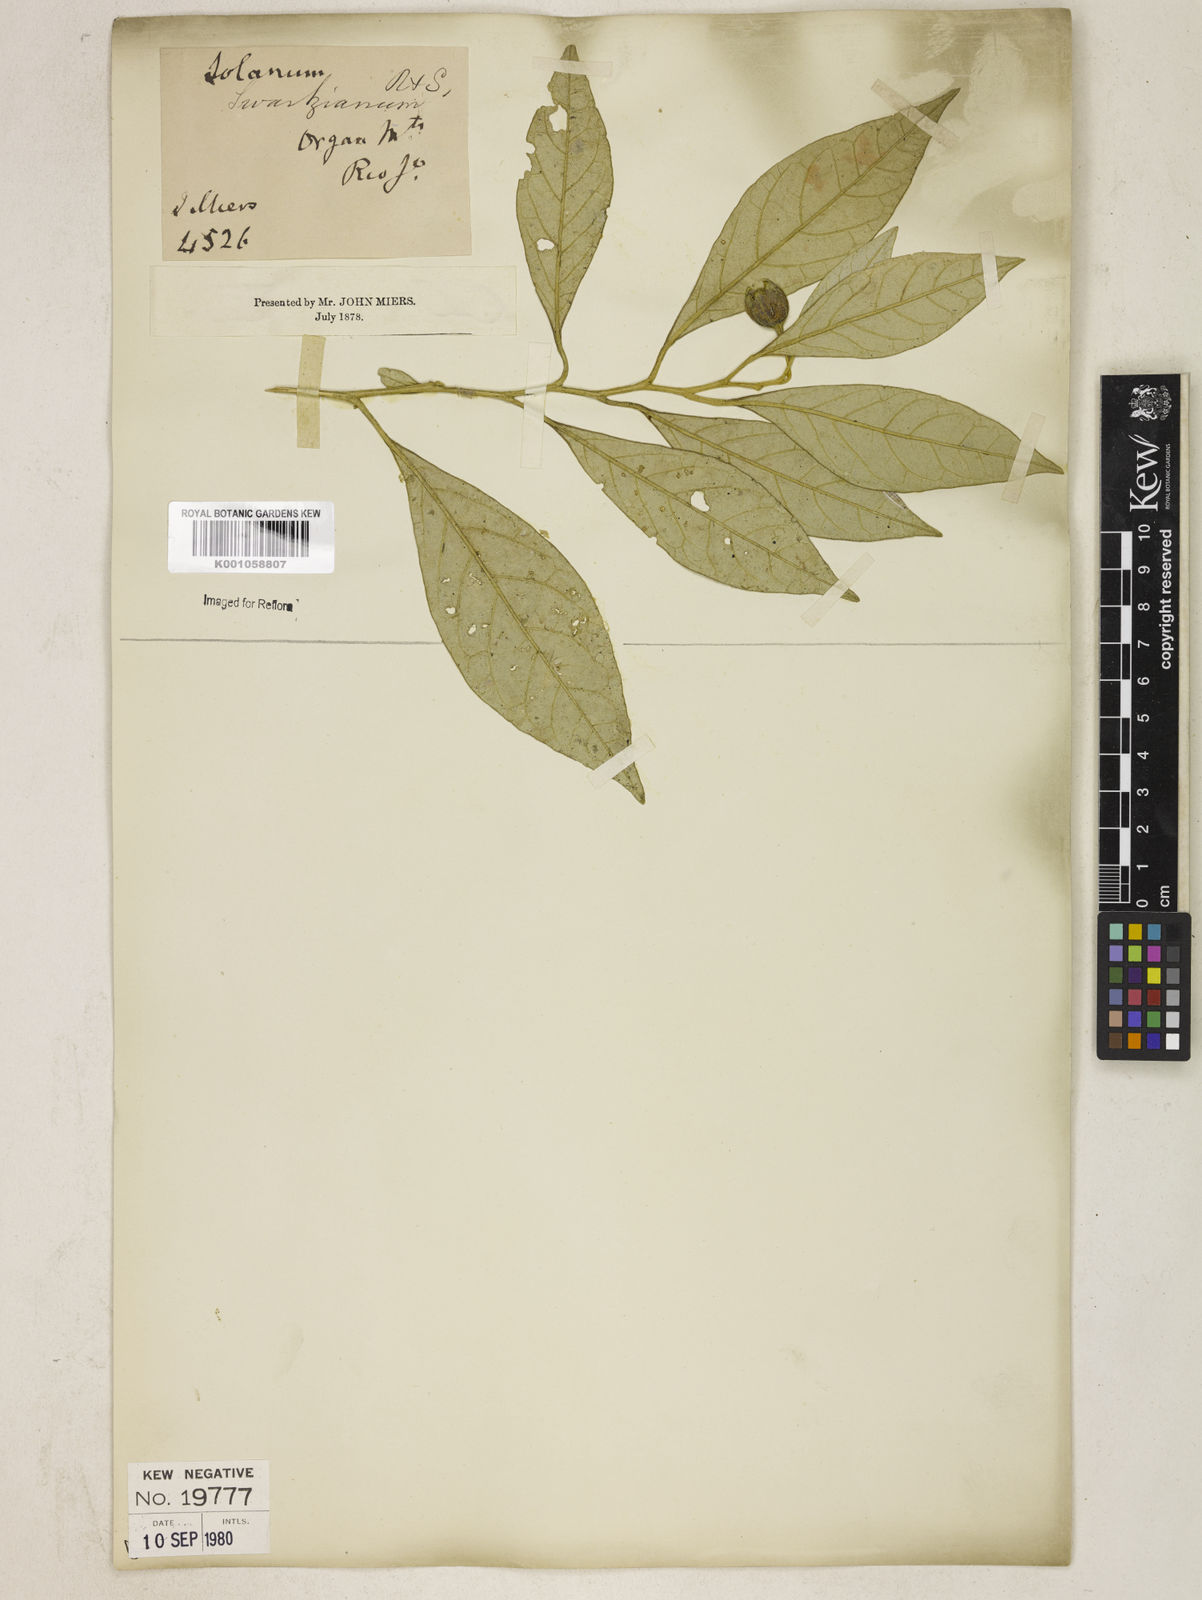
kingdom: Plantae
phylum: Tracheophyta
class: Magnoliopsida
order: Solanales
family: Solanaceae
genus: Solanum
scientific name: Solanum swartzianum
